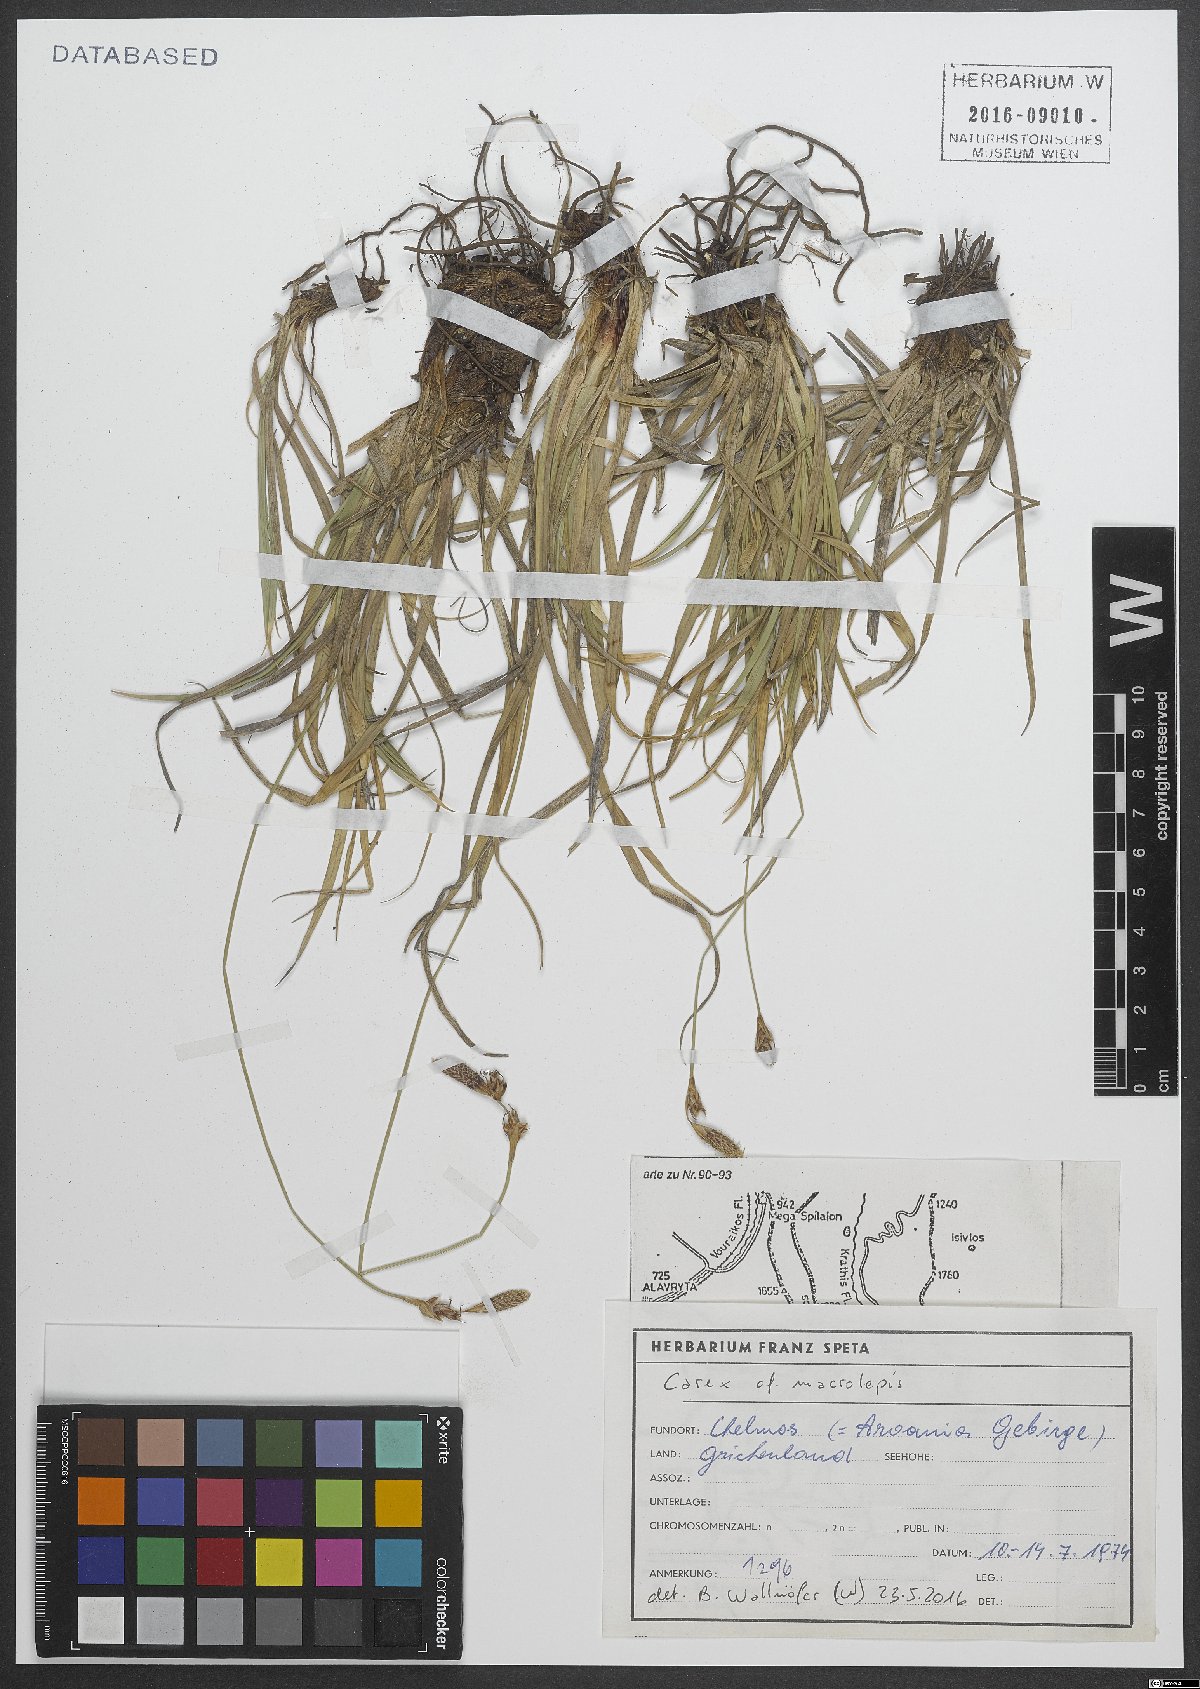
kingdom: Plantae
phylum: Tracheophyta
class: Liliopsida
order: Poales
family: Cyperaceae
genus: Carex
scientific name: Carex macrolepis
